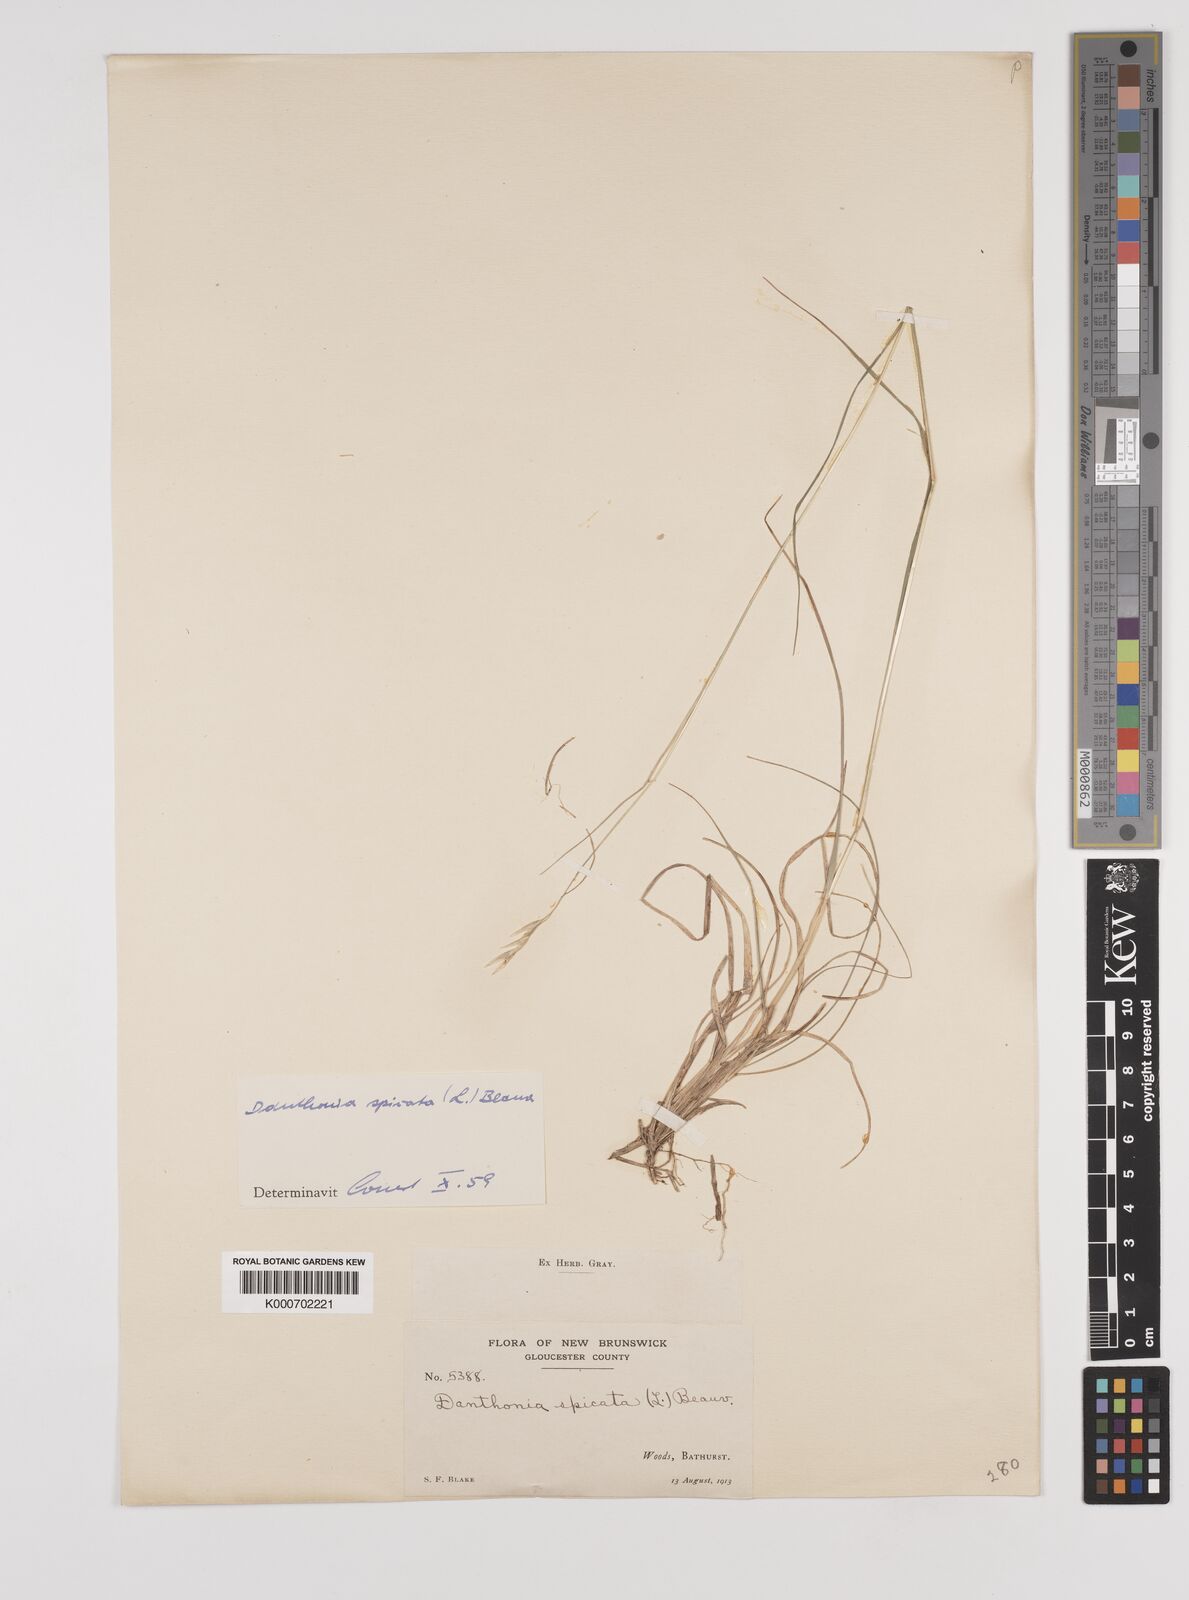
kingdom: Plantae
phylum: Tracheophyta
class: Liliopsida
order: Poales
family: Poaceae
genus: Danthonia
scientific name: Danthonia spicata
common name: Common wild oatgrass
